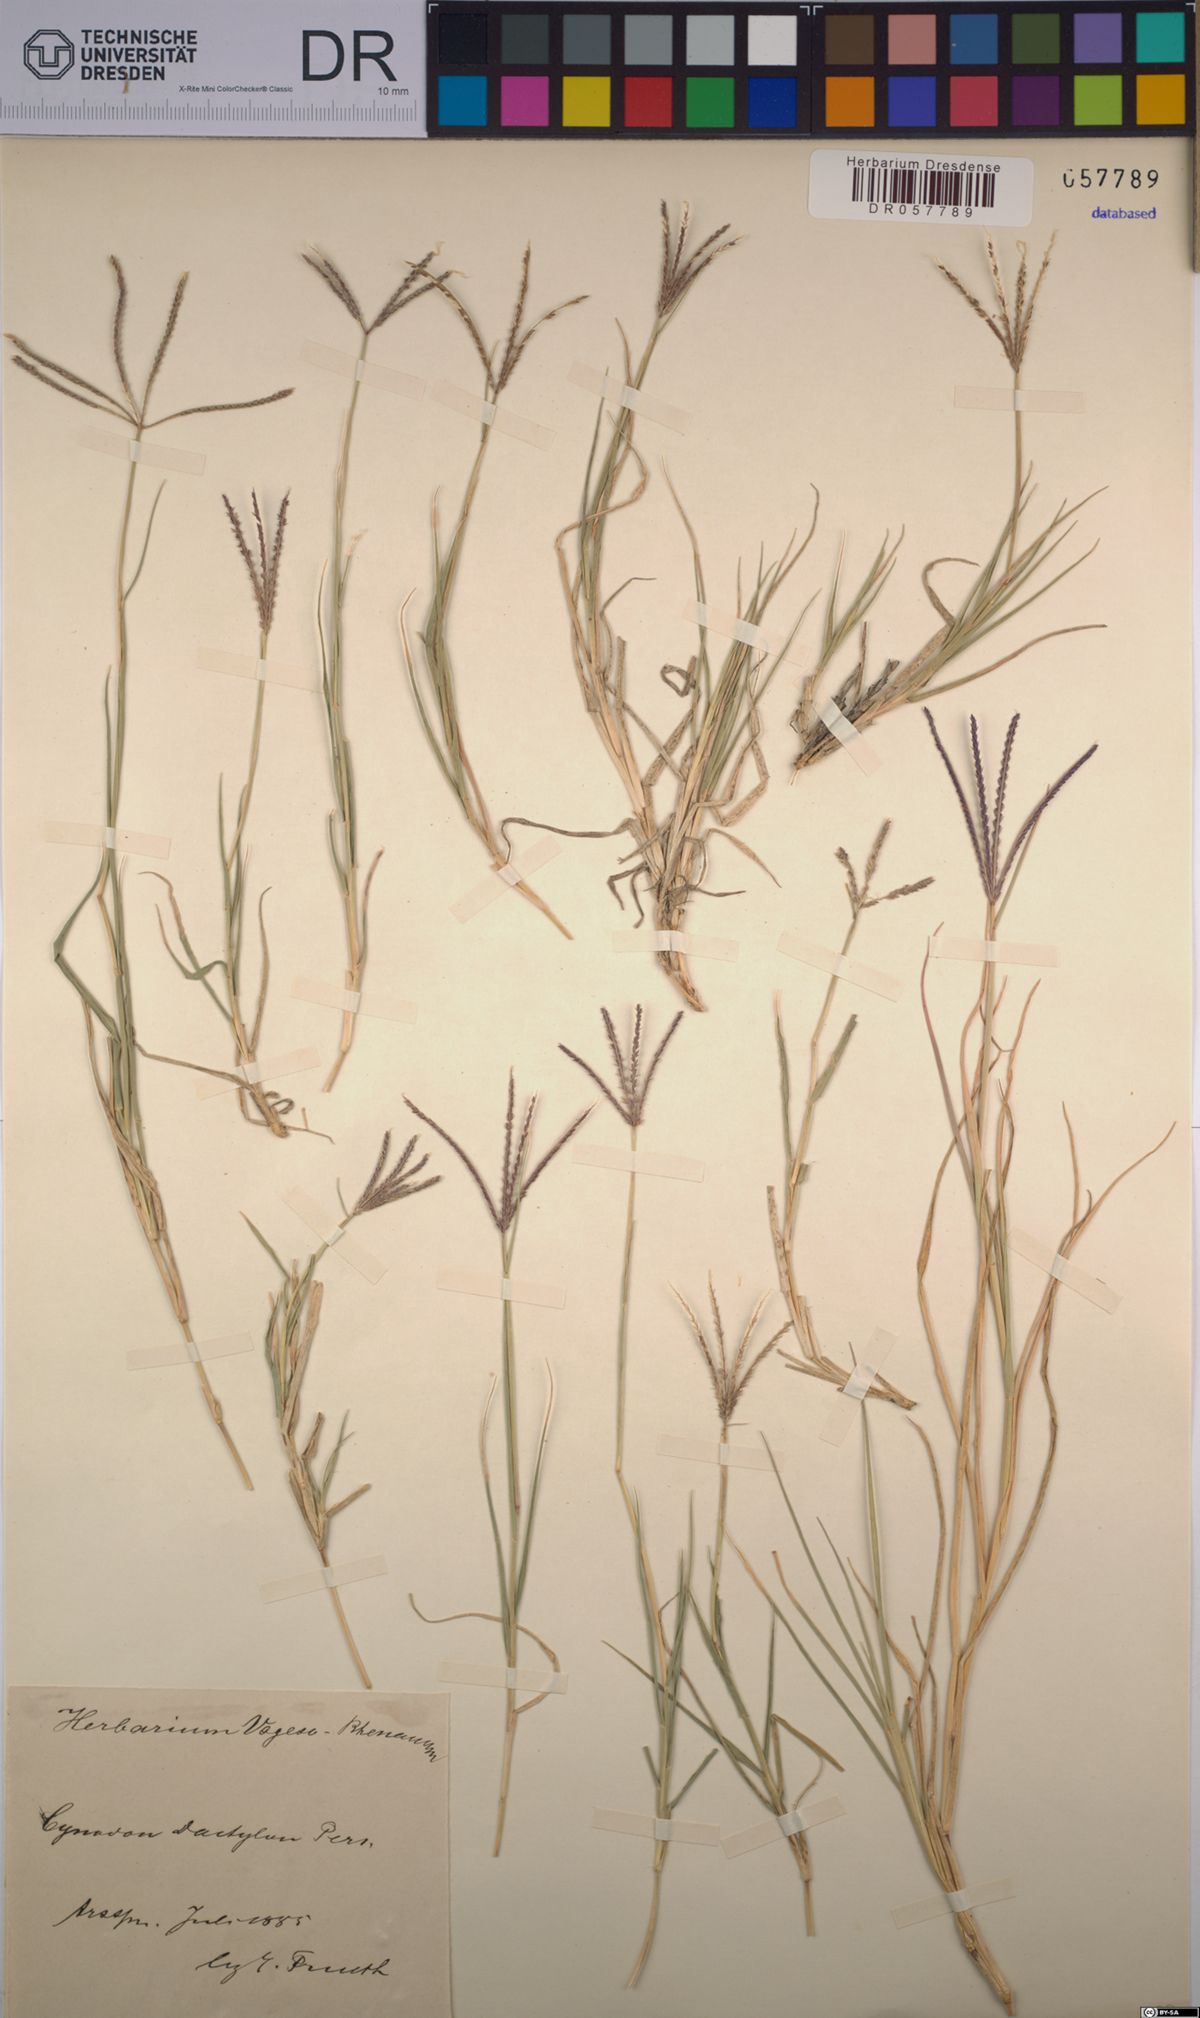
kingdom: Plantae
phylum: Tracheophyta
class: Liliopsida
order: Poales
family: Poaceae
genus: Cynodon
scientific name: Cynodon dactylon
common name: Bermuda grass
